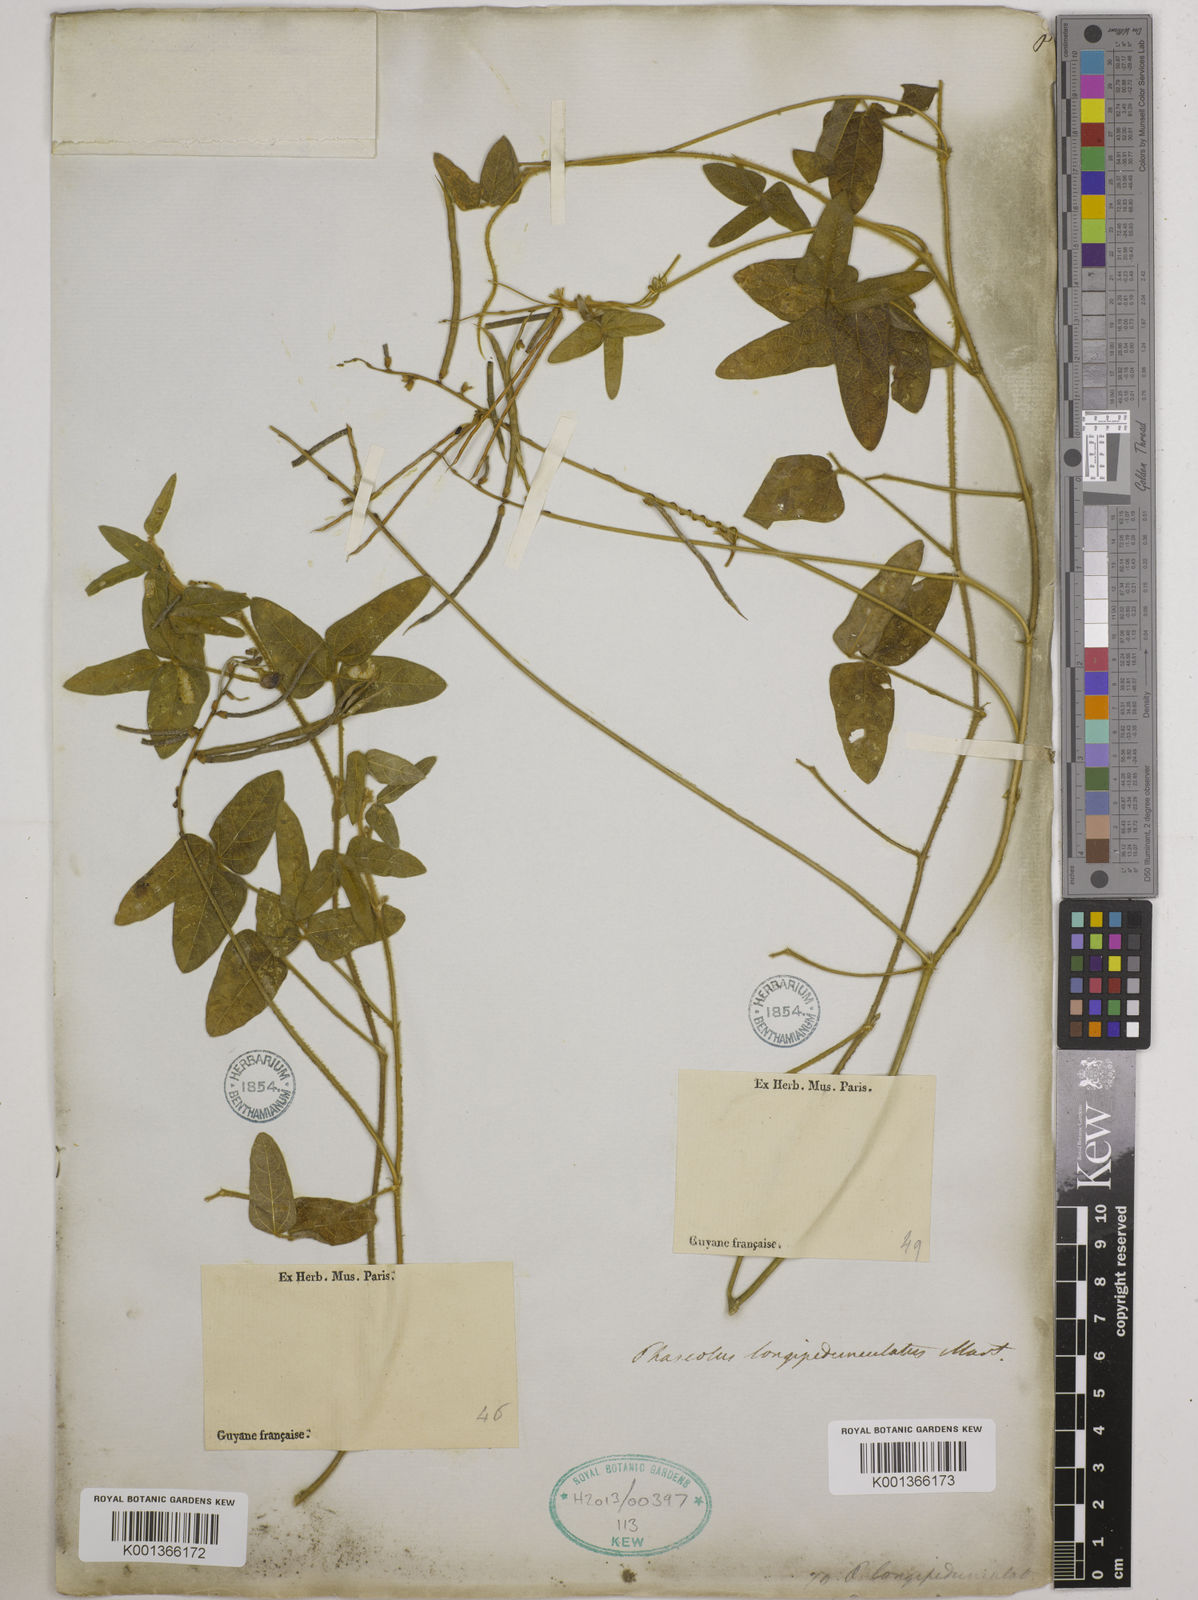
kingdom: Plantae
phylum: Tracheophyta
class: Magnoliopsida
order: Fabales
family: Fabaceae
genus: Macroptilium
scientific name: Macroptilium longepedunculatum
